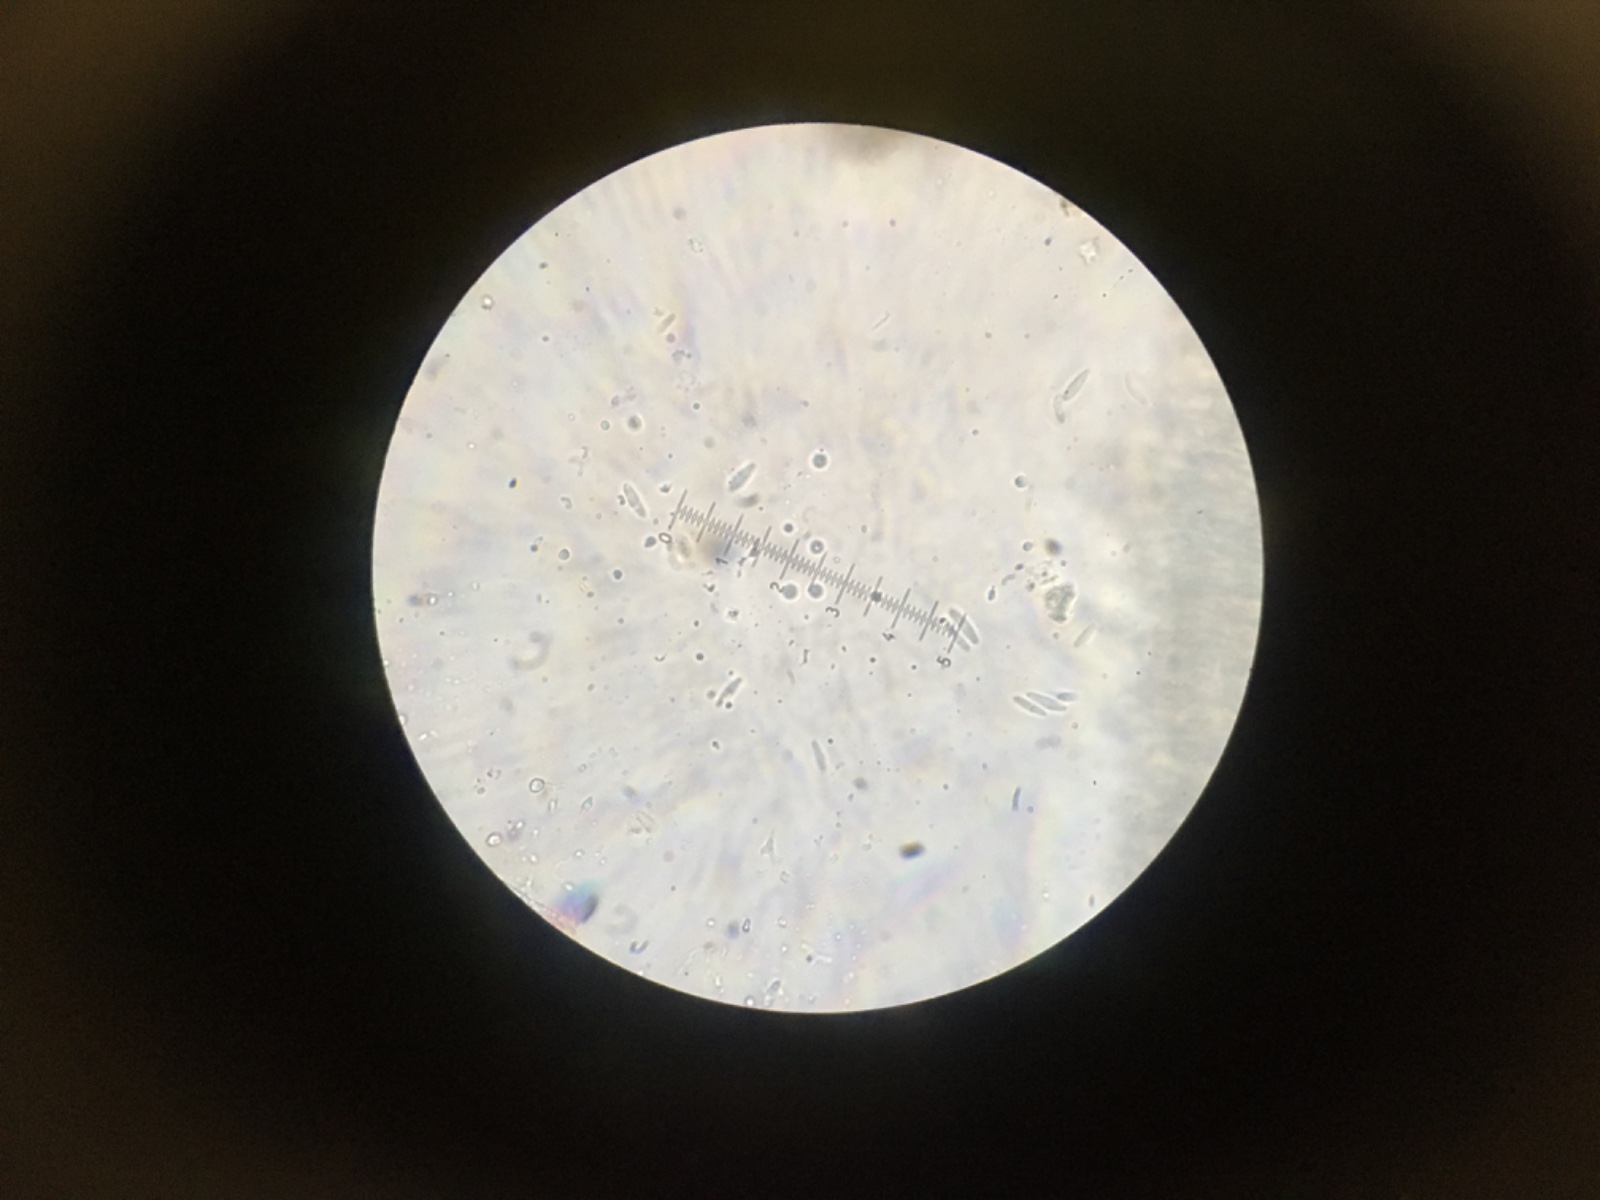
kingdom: Fungi
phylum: Ascomycota
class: Leotiomycetes
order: Helotiales
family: Lachnaceae
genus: Lachnum
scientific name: Lachnum brevipilosum
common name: korthåret frynseskive
